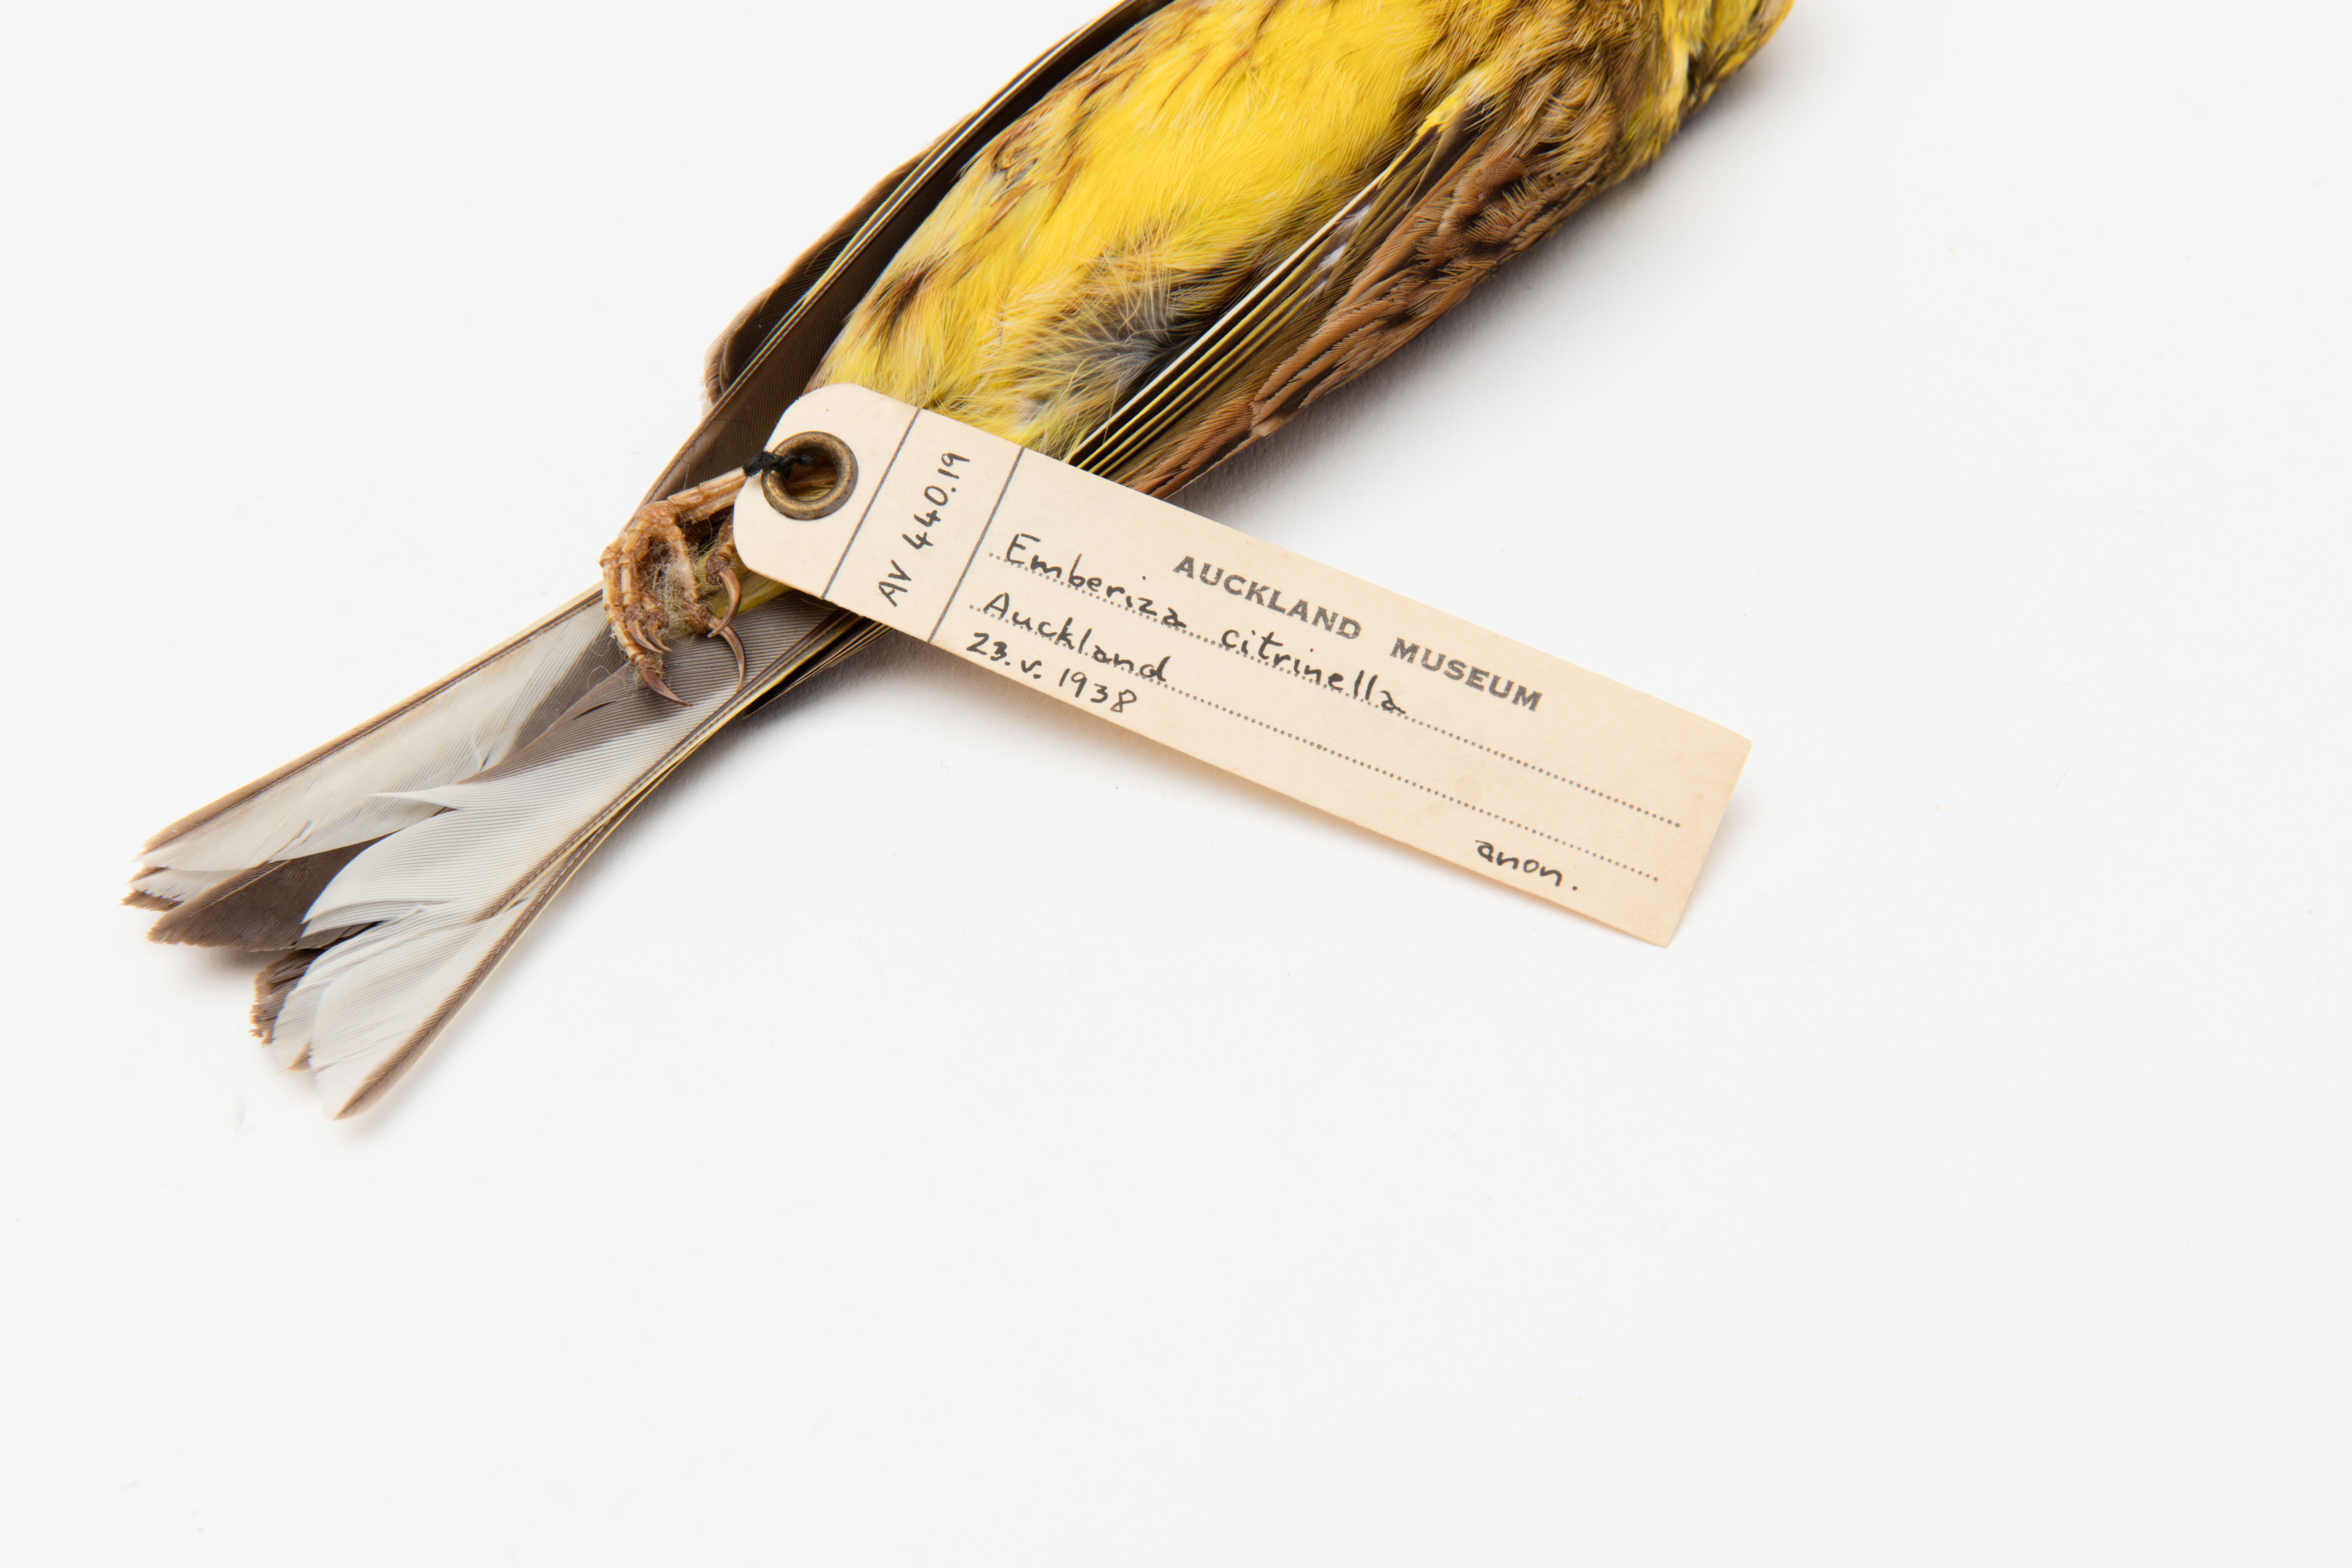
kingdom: Animalia
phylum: Chordata
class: Aves
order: Passeriformes
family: Emberizidae
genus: Emberiza
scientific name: Emberiza citrinella
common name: Yellowhammer
